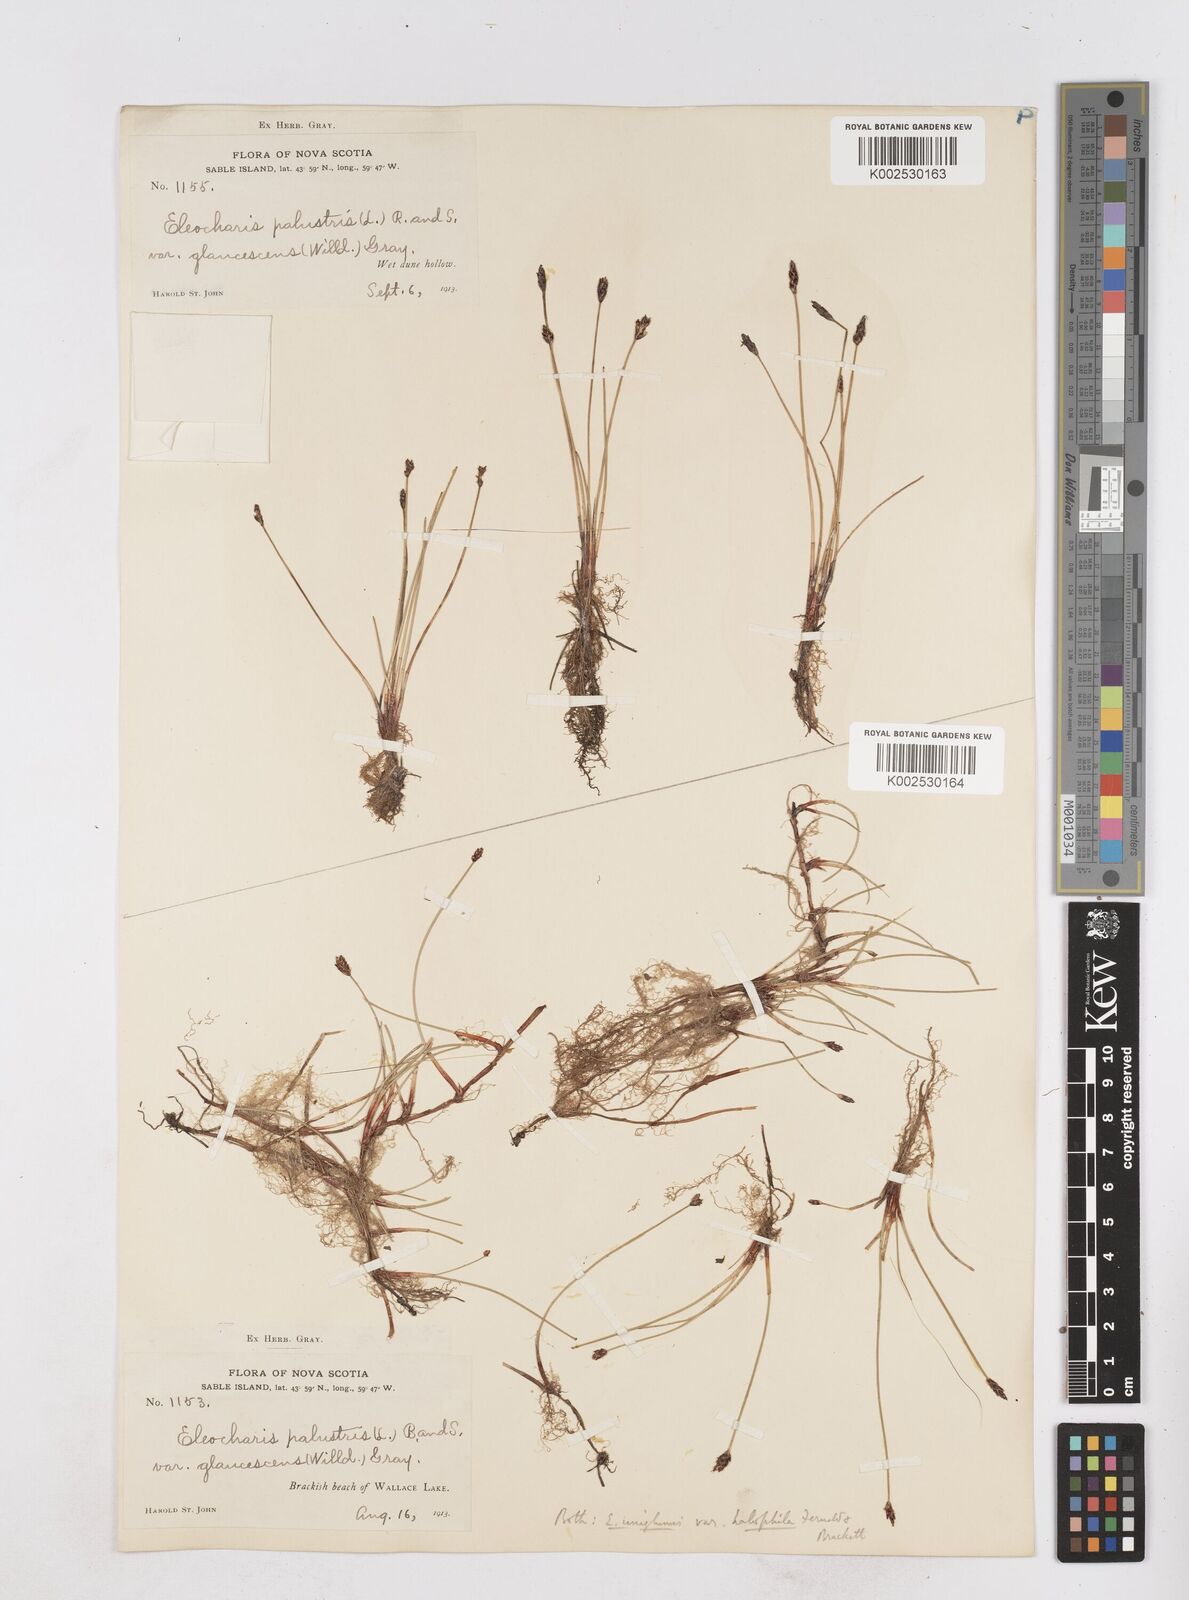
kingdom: Plantae
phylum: Tracheophyta
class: Liliopsida
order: Poales
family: Cyperaceae
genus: Eleocharis
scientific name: Eleocharis uniglumis
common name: Slender spike-rush
